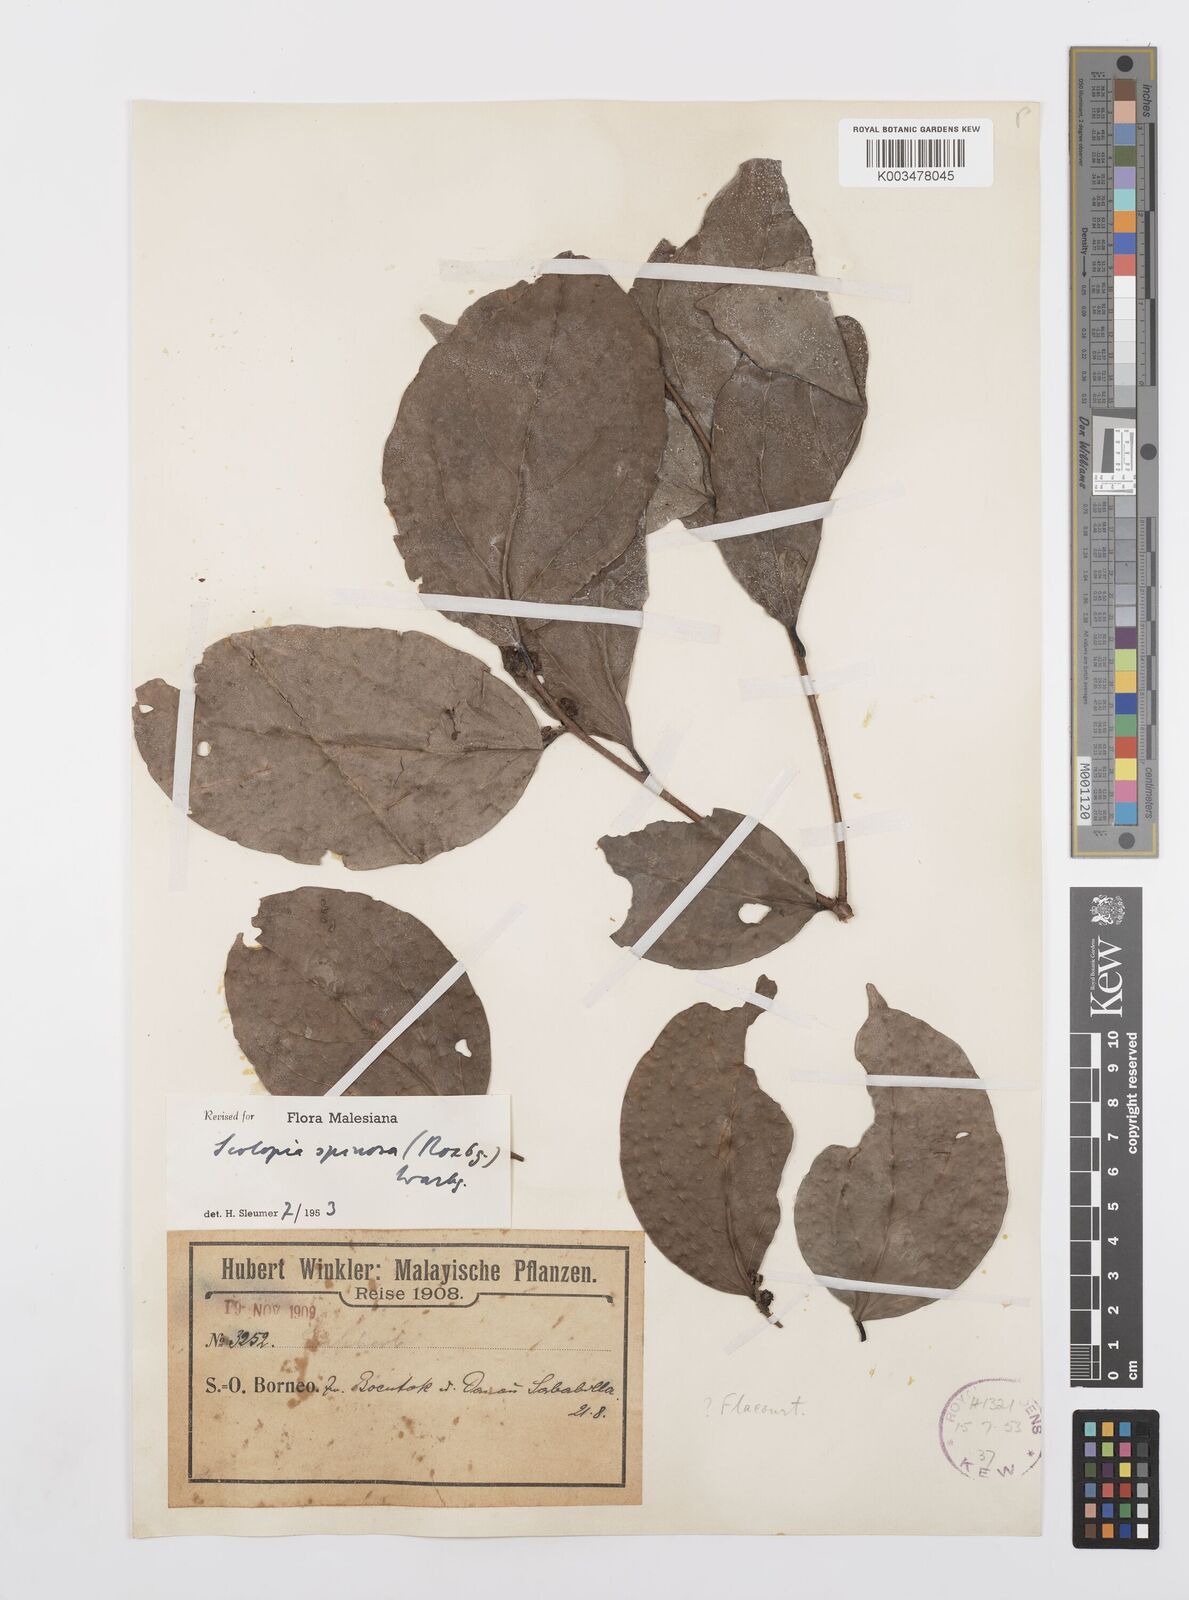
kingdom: Plantae
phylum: Tracheophyta
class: Magnoliopsida
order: Malpighiales
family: Salicaceae
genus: Scolopia
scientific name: Scolopia spinosa
